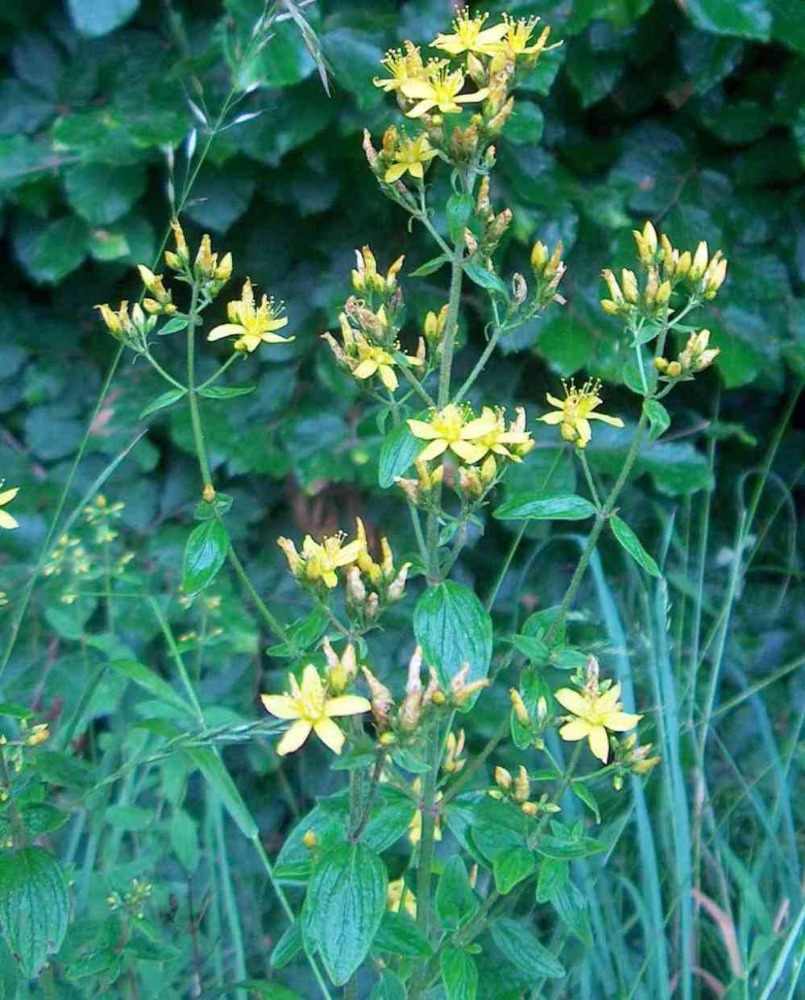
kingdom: Plantae
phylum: Tracheophyta
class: Magnoliopsida
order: Malpighiales
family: Hypericaceae
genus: Hypericum
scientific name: Hypericum hirsutum
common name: Lådden perikon
